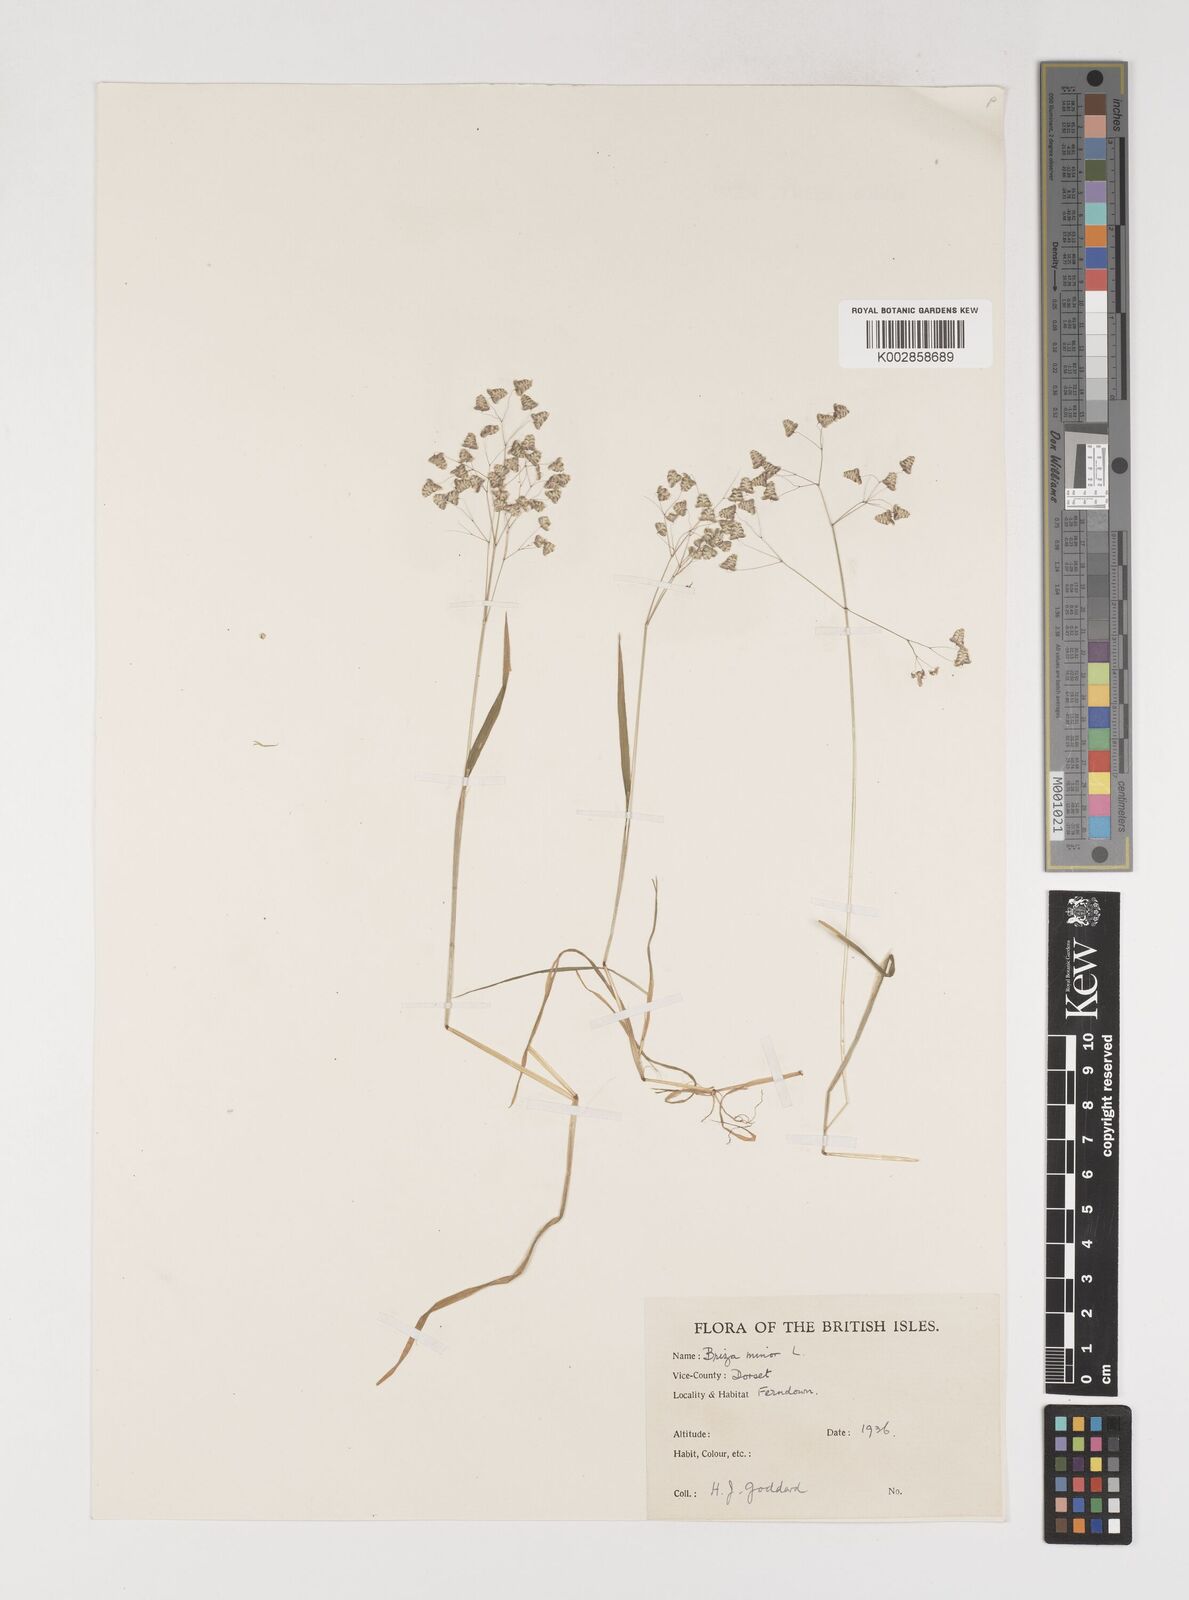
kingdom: Plantae
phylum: Tracheophyta
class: Liliopsida
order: Poales
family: Poaceae
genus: Briza
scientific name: Briza minor
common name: Lesser quaking-grass
